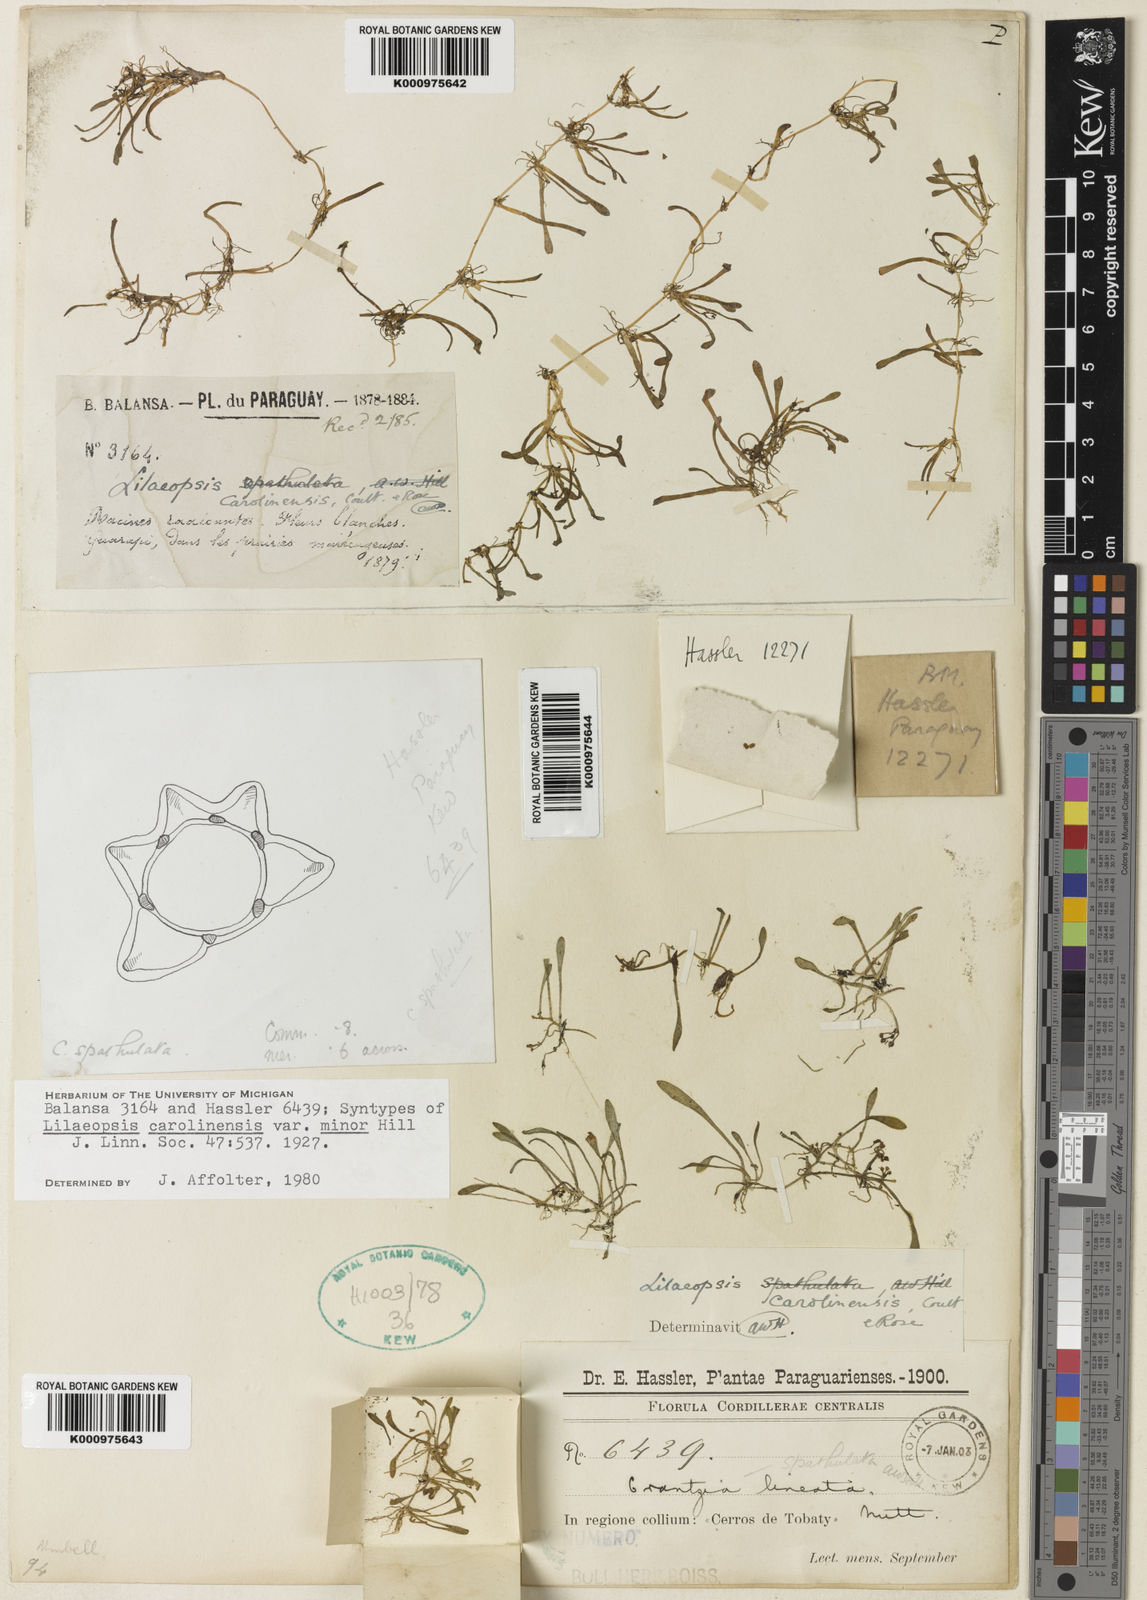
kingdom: Plantae
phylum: Tracheophyta
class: Magnoliopsida
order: Apiales
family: Apiaceae
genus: Lilaeopsis
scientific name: Lilaeopsis carolinensis
